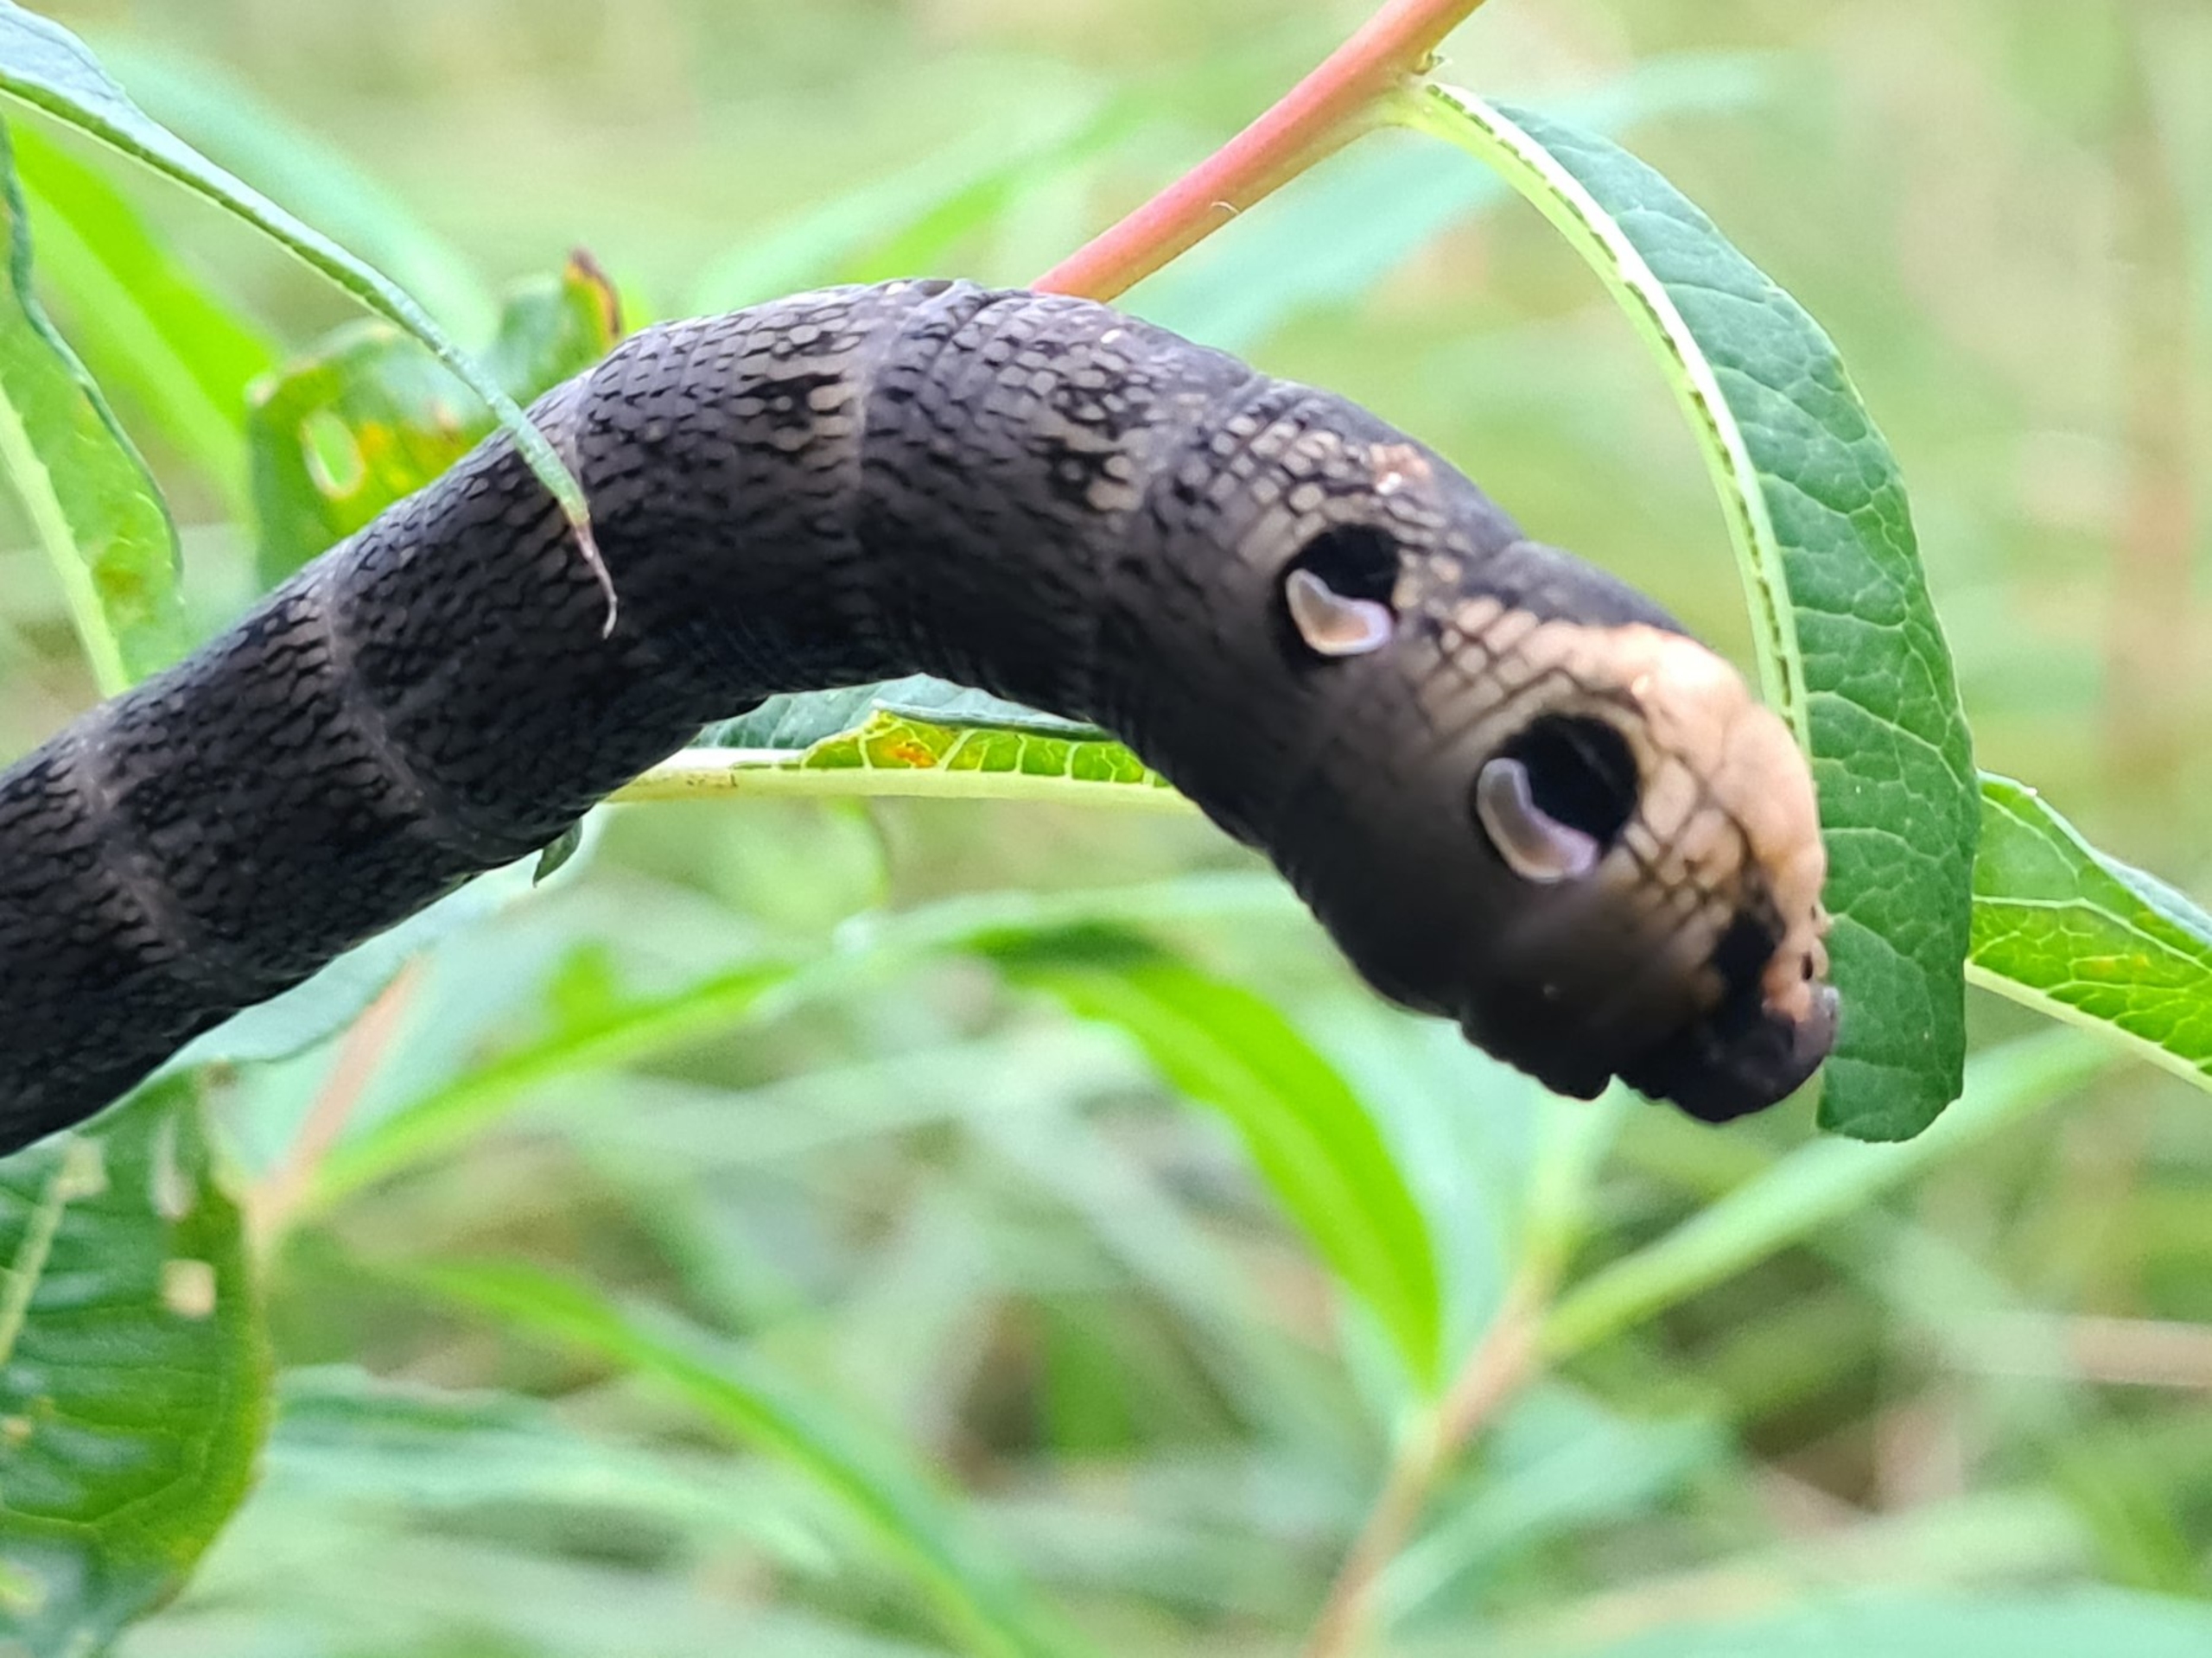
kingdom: Animalia
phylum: Arthropoda
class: Insecta
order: Lepidoptera
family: Sphingidae
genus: Deilephila
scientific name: Deilephila elpenor
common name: Dueurtsværmer
